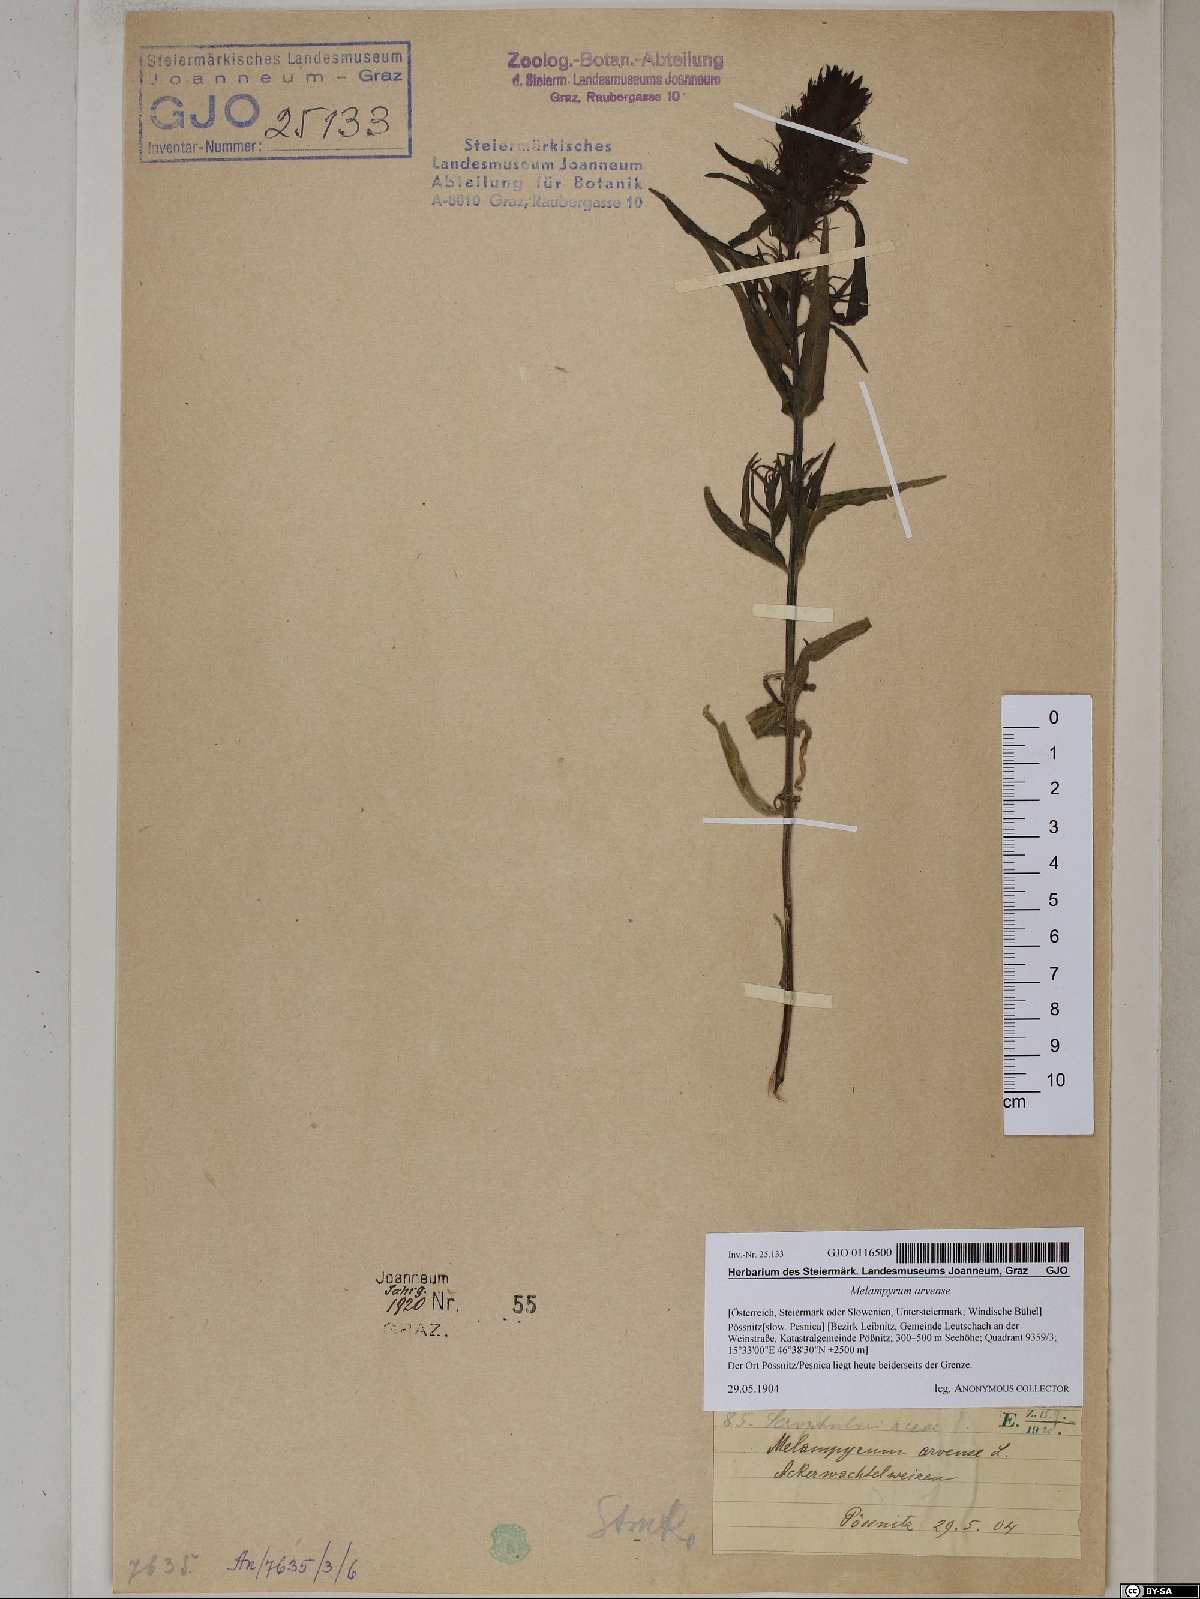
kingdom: Plantae
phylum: Tracheophyta
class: Magnoliopsida
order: Lamiales
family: Orobanchaceae
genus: Melampyrum
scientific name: Melampyrum arvense
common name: Field cow-wheat
